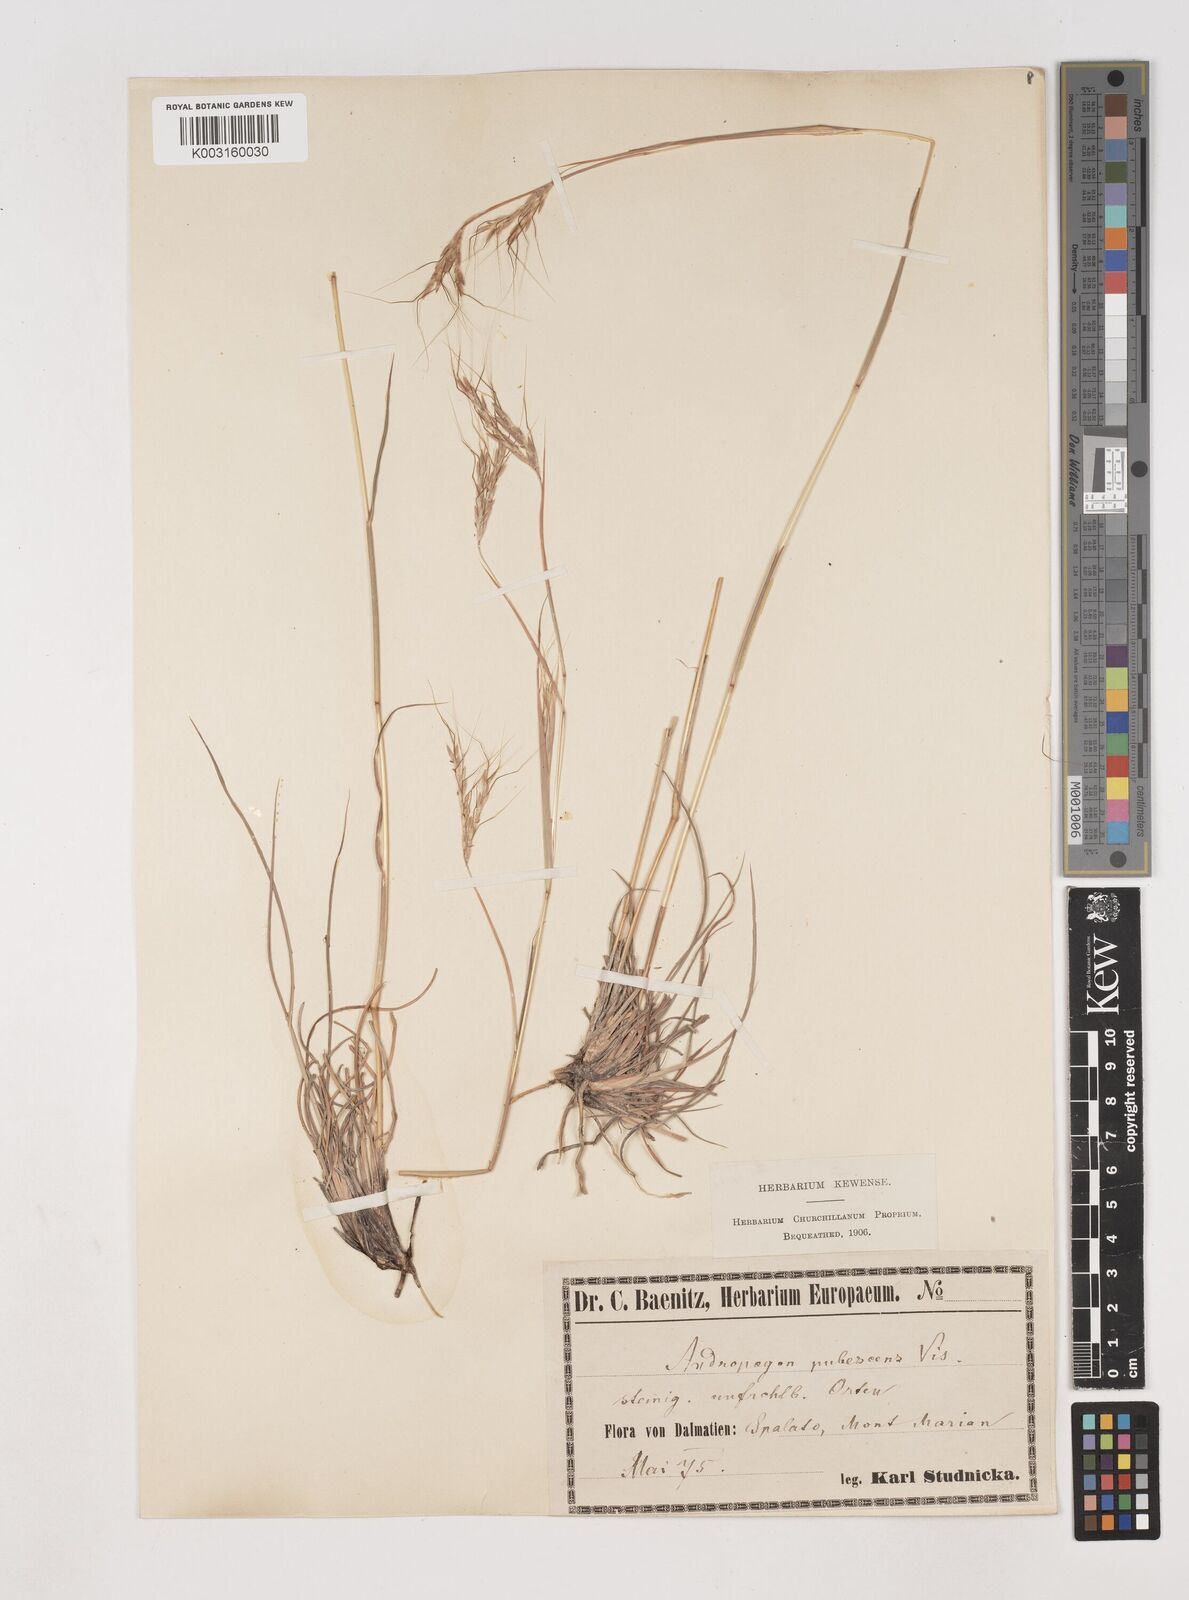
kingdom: Plantae
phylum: Tracheophyta
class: Liliopsida
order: Poales
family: Poaceae
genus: Hyparrhenia
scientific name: Hyparrhenia hirta
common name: Thatching grass
